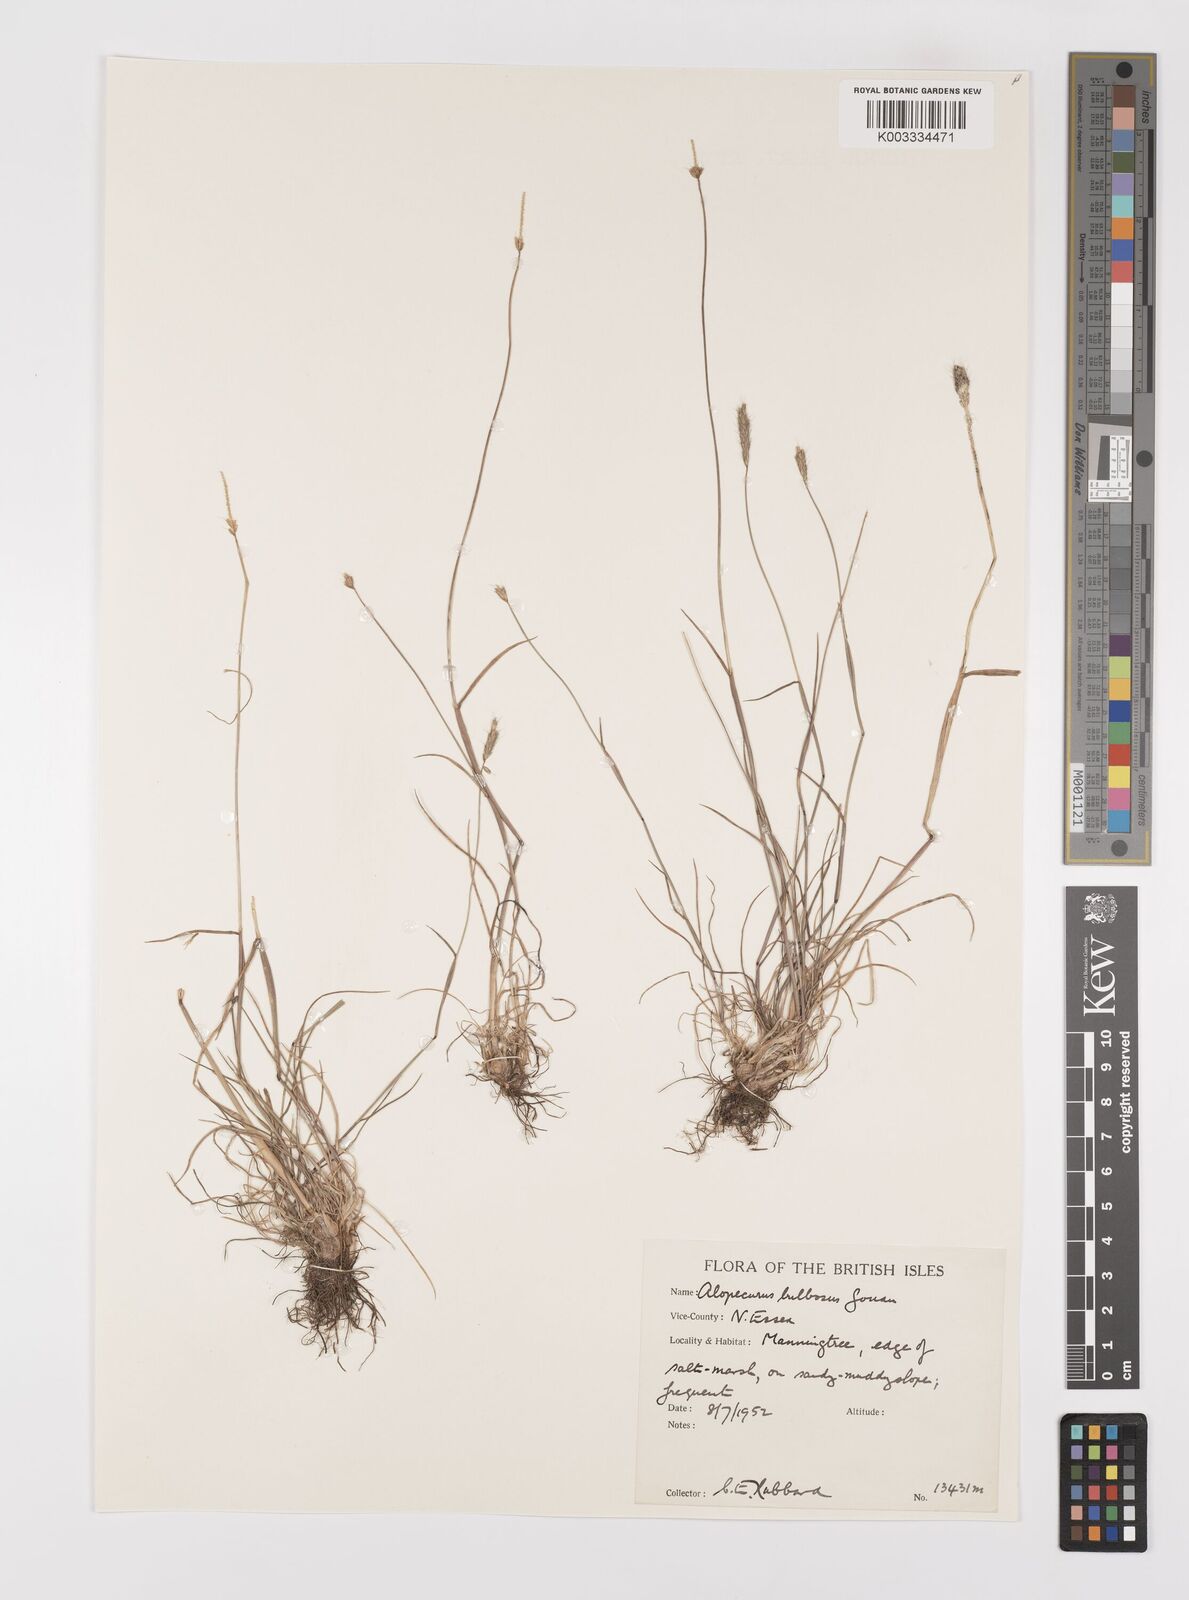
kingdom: Plantae
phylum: Tracheophyta
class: Liliopsida
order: Poales
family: Poaceae
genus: Alopecurus
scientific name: Alopecurus bulbosus
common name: Bulbous foxtail
